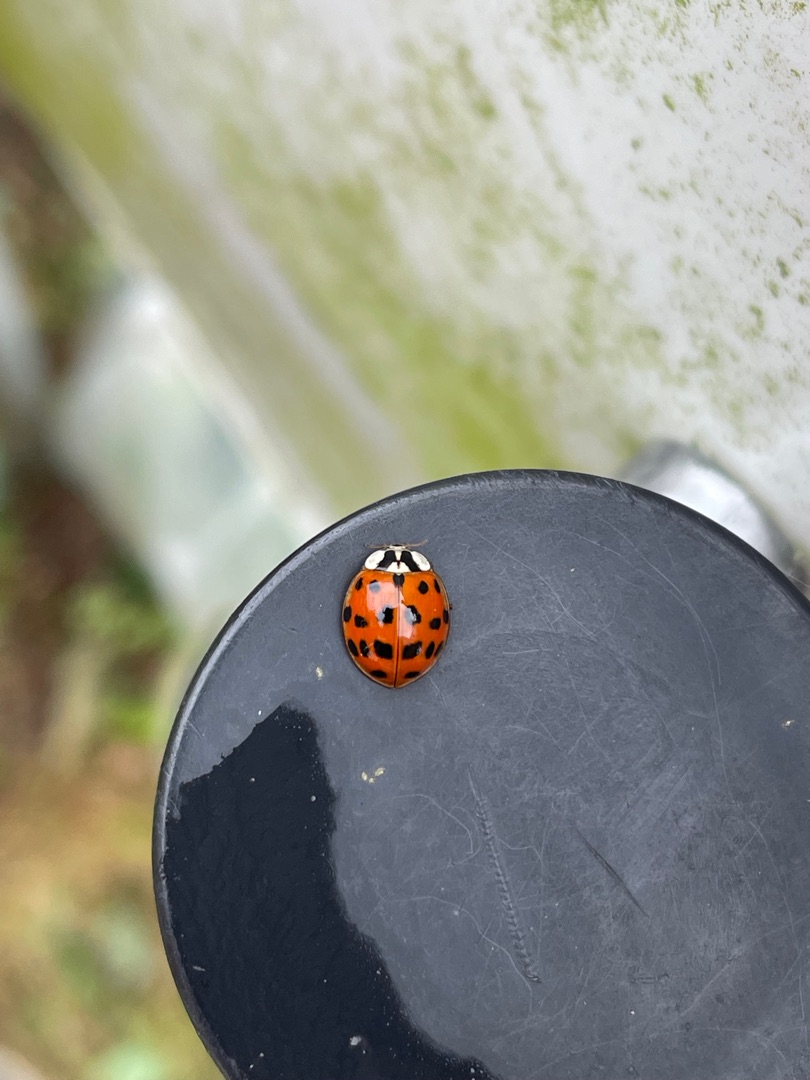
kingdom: Animalia
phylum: Arthropoda
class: Insecta
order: Coleoptera
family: Coccinellidae
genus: Harmonia
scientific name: Harmonia axyridis
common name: Harlekinmariehøne
